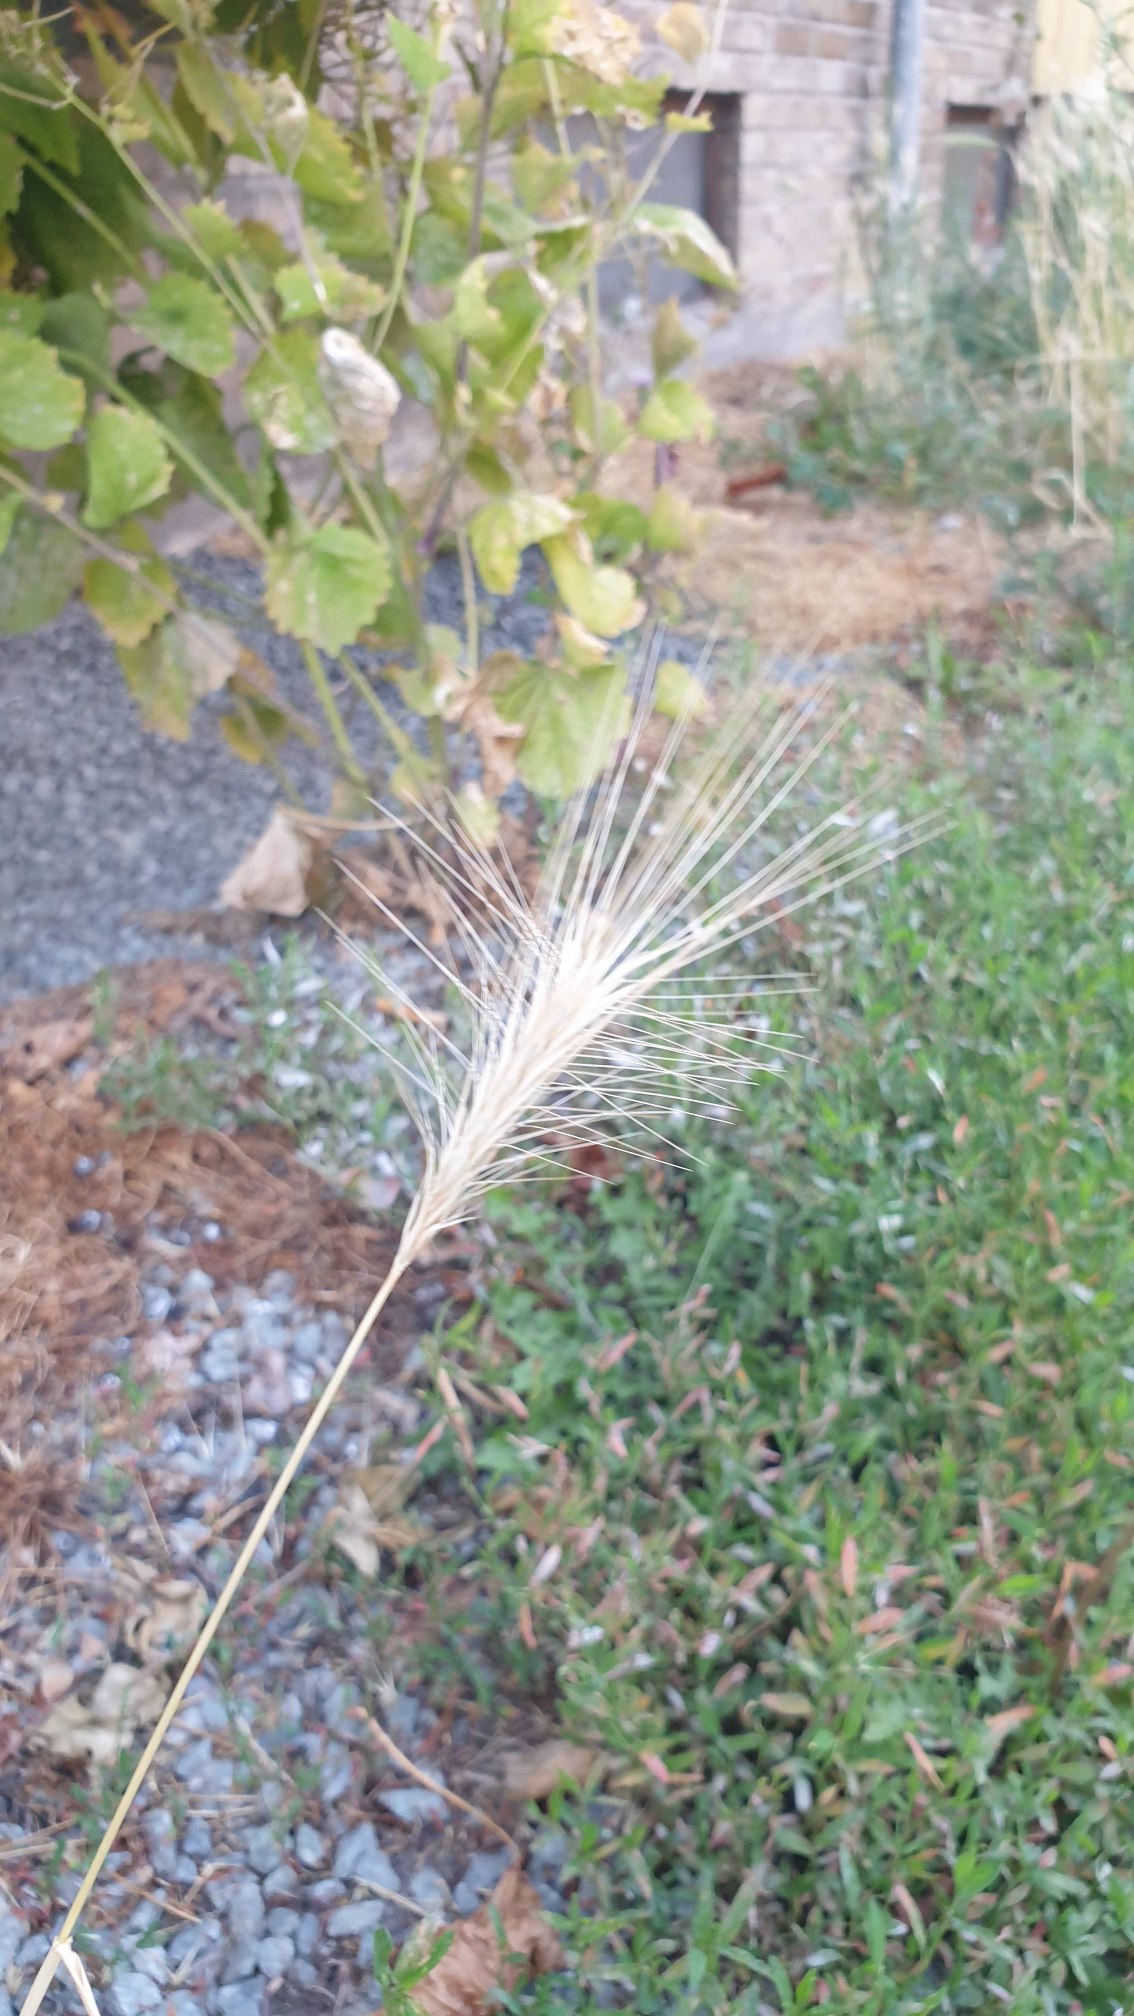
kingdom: Plantae
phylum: Tracheophyta
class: Liliopsida
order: Poales
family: Poaceae
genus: Hordeum
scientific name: Hordeum murinum
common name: Gold byg
